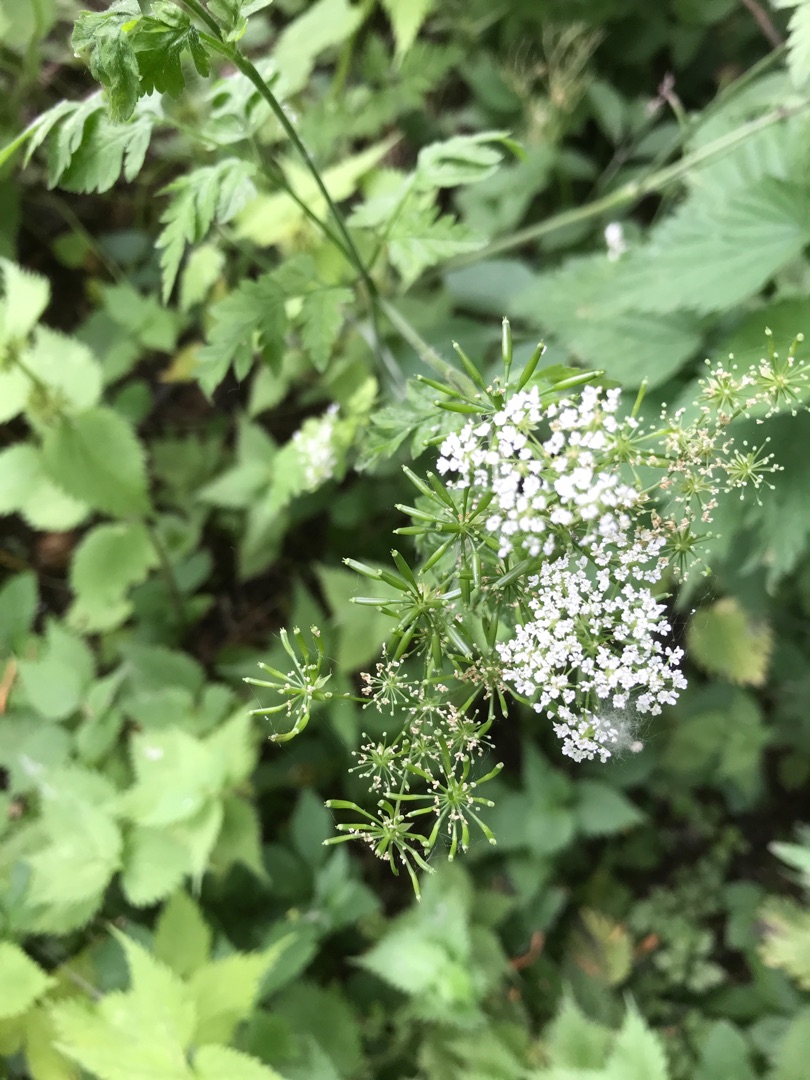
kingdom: Plantae
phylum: Tracheophyta
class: Magnoliopsida
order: Apiales
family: Apiaceae
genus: Chaerophyllum
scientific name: Chaerophyllum temulum
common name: Almindelig hulsvøb
